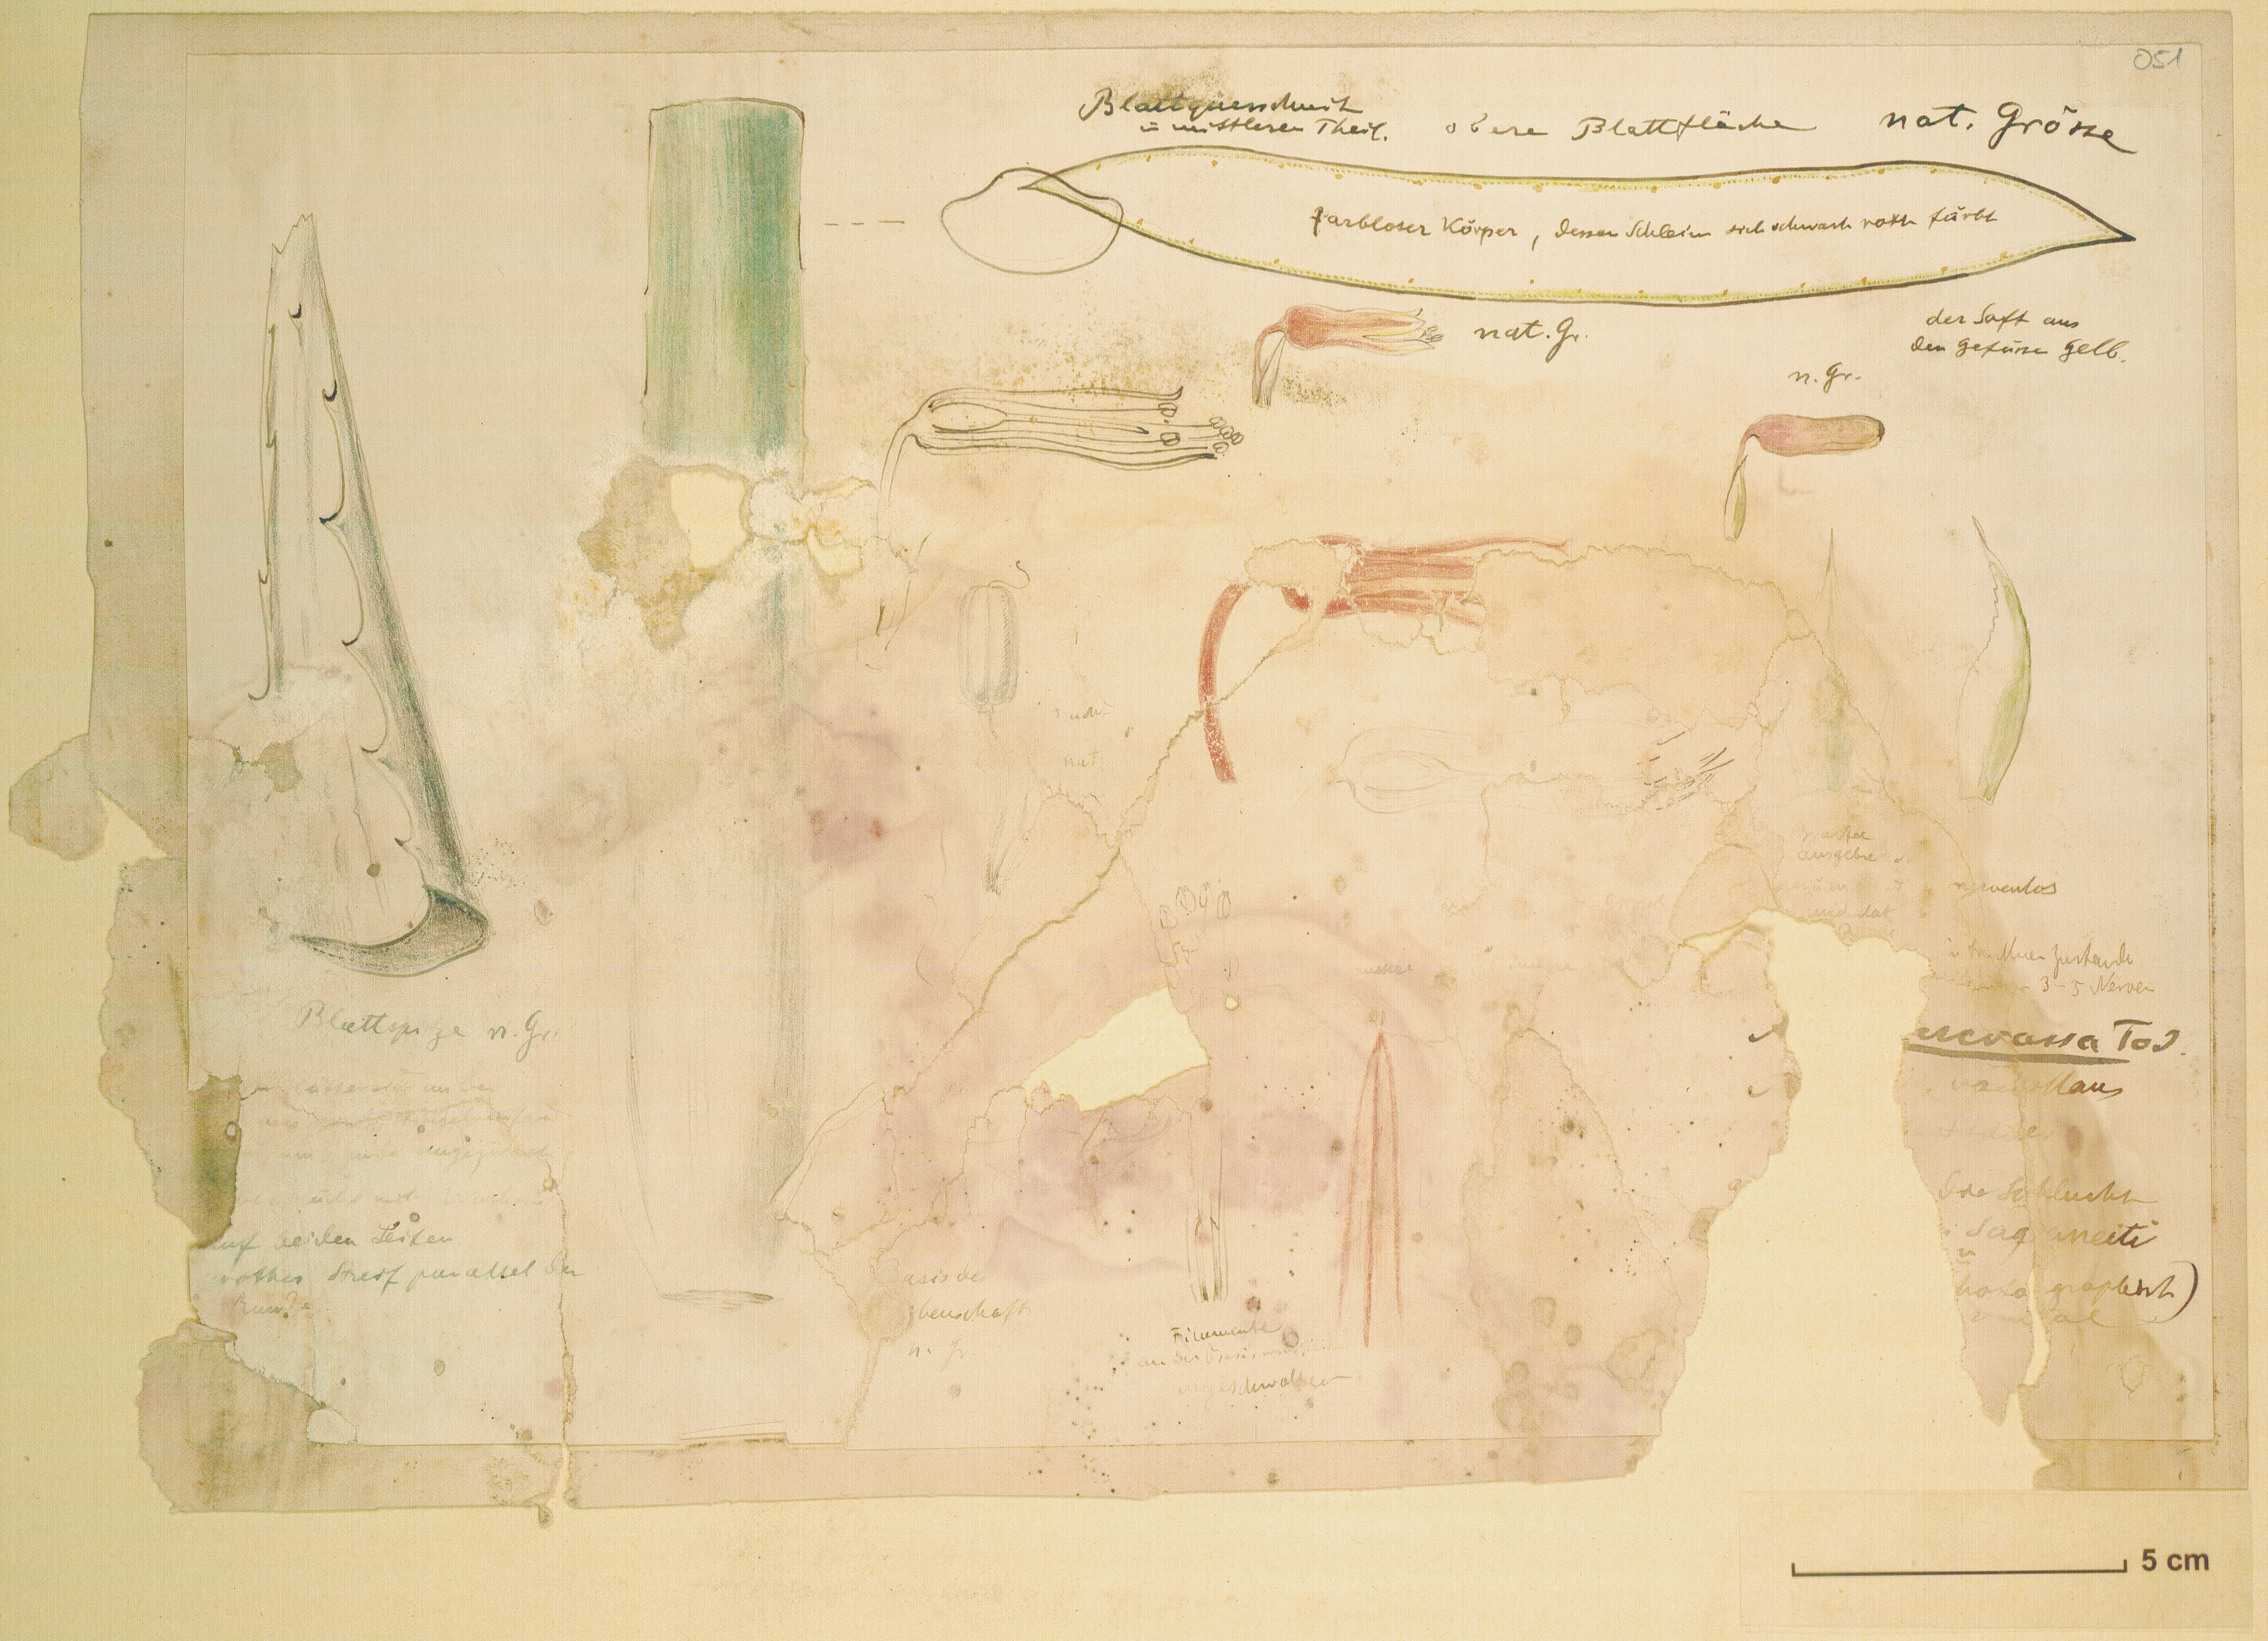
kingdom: Plantae
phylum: Tracheophyta
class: Liliopsida
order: Asparagales
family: Asphodelaceae
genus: Aloe
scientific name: Aloe percrassa
